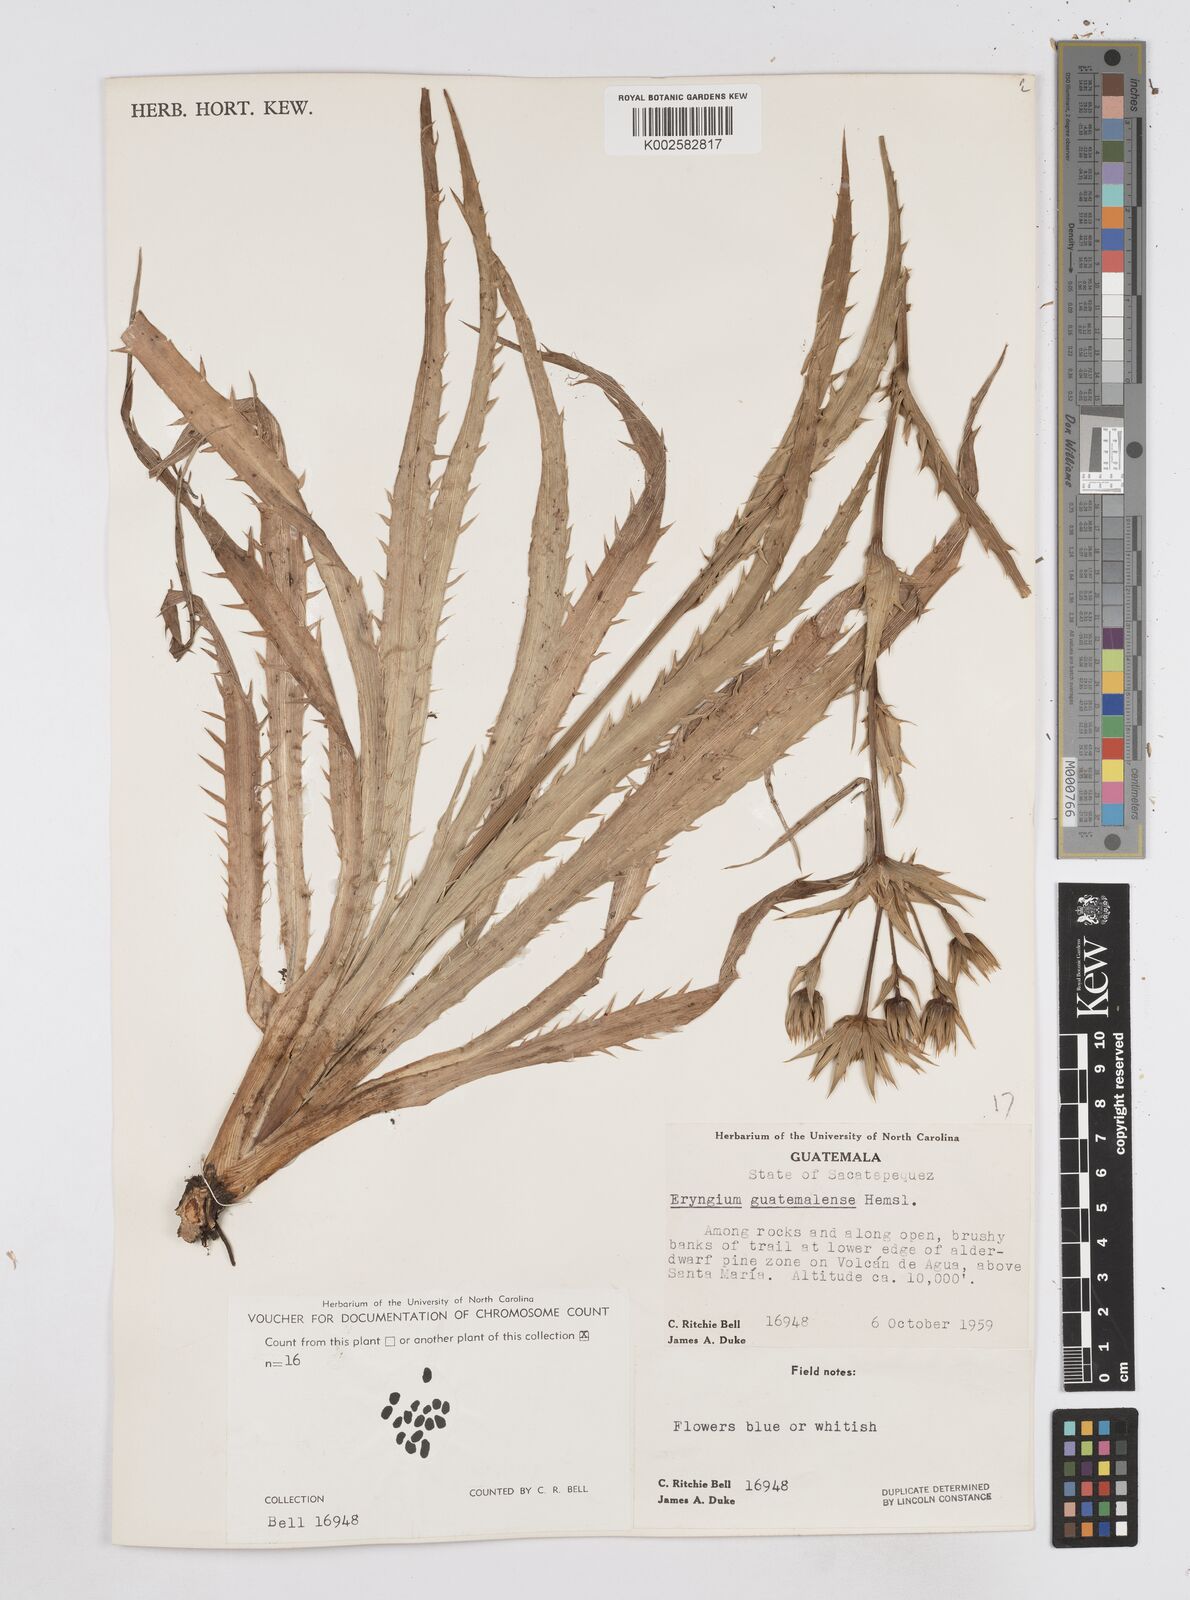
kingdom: Plantae
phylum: Tracheophyta
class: Magnoliopsida
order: Apiales
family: Apiaceae
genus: Eryngium
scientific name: Eryngium guatemalense
